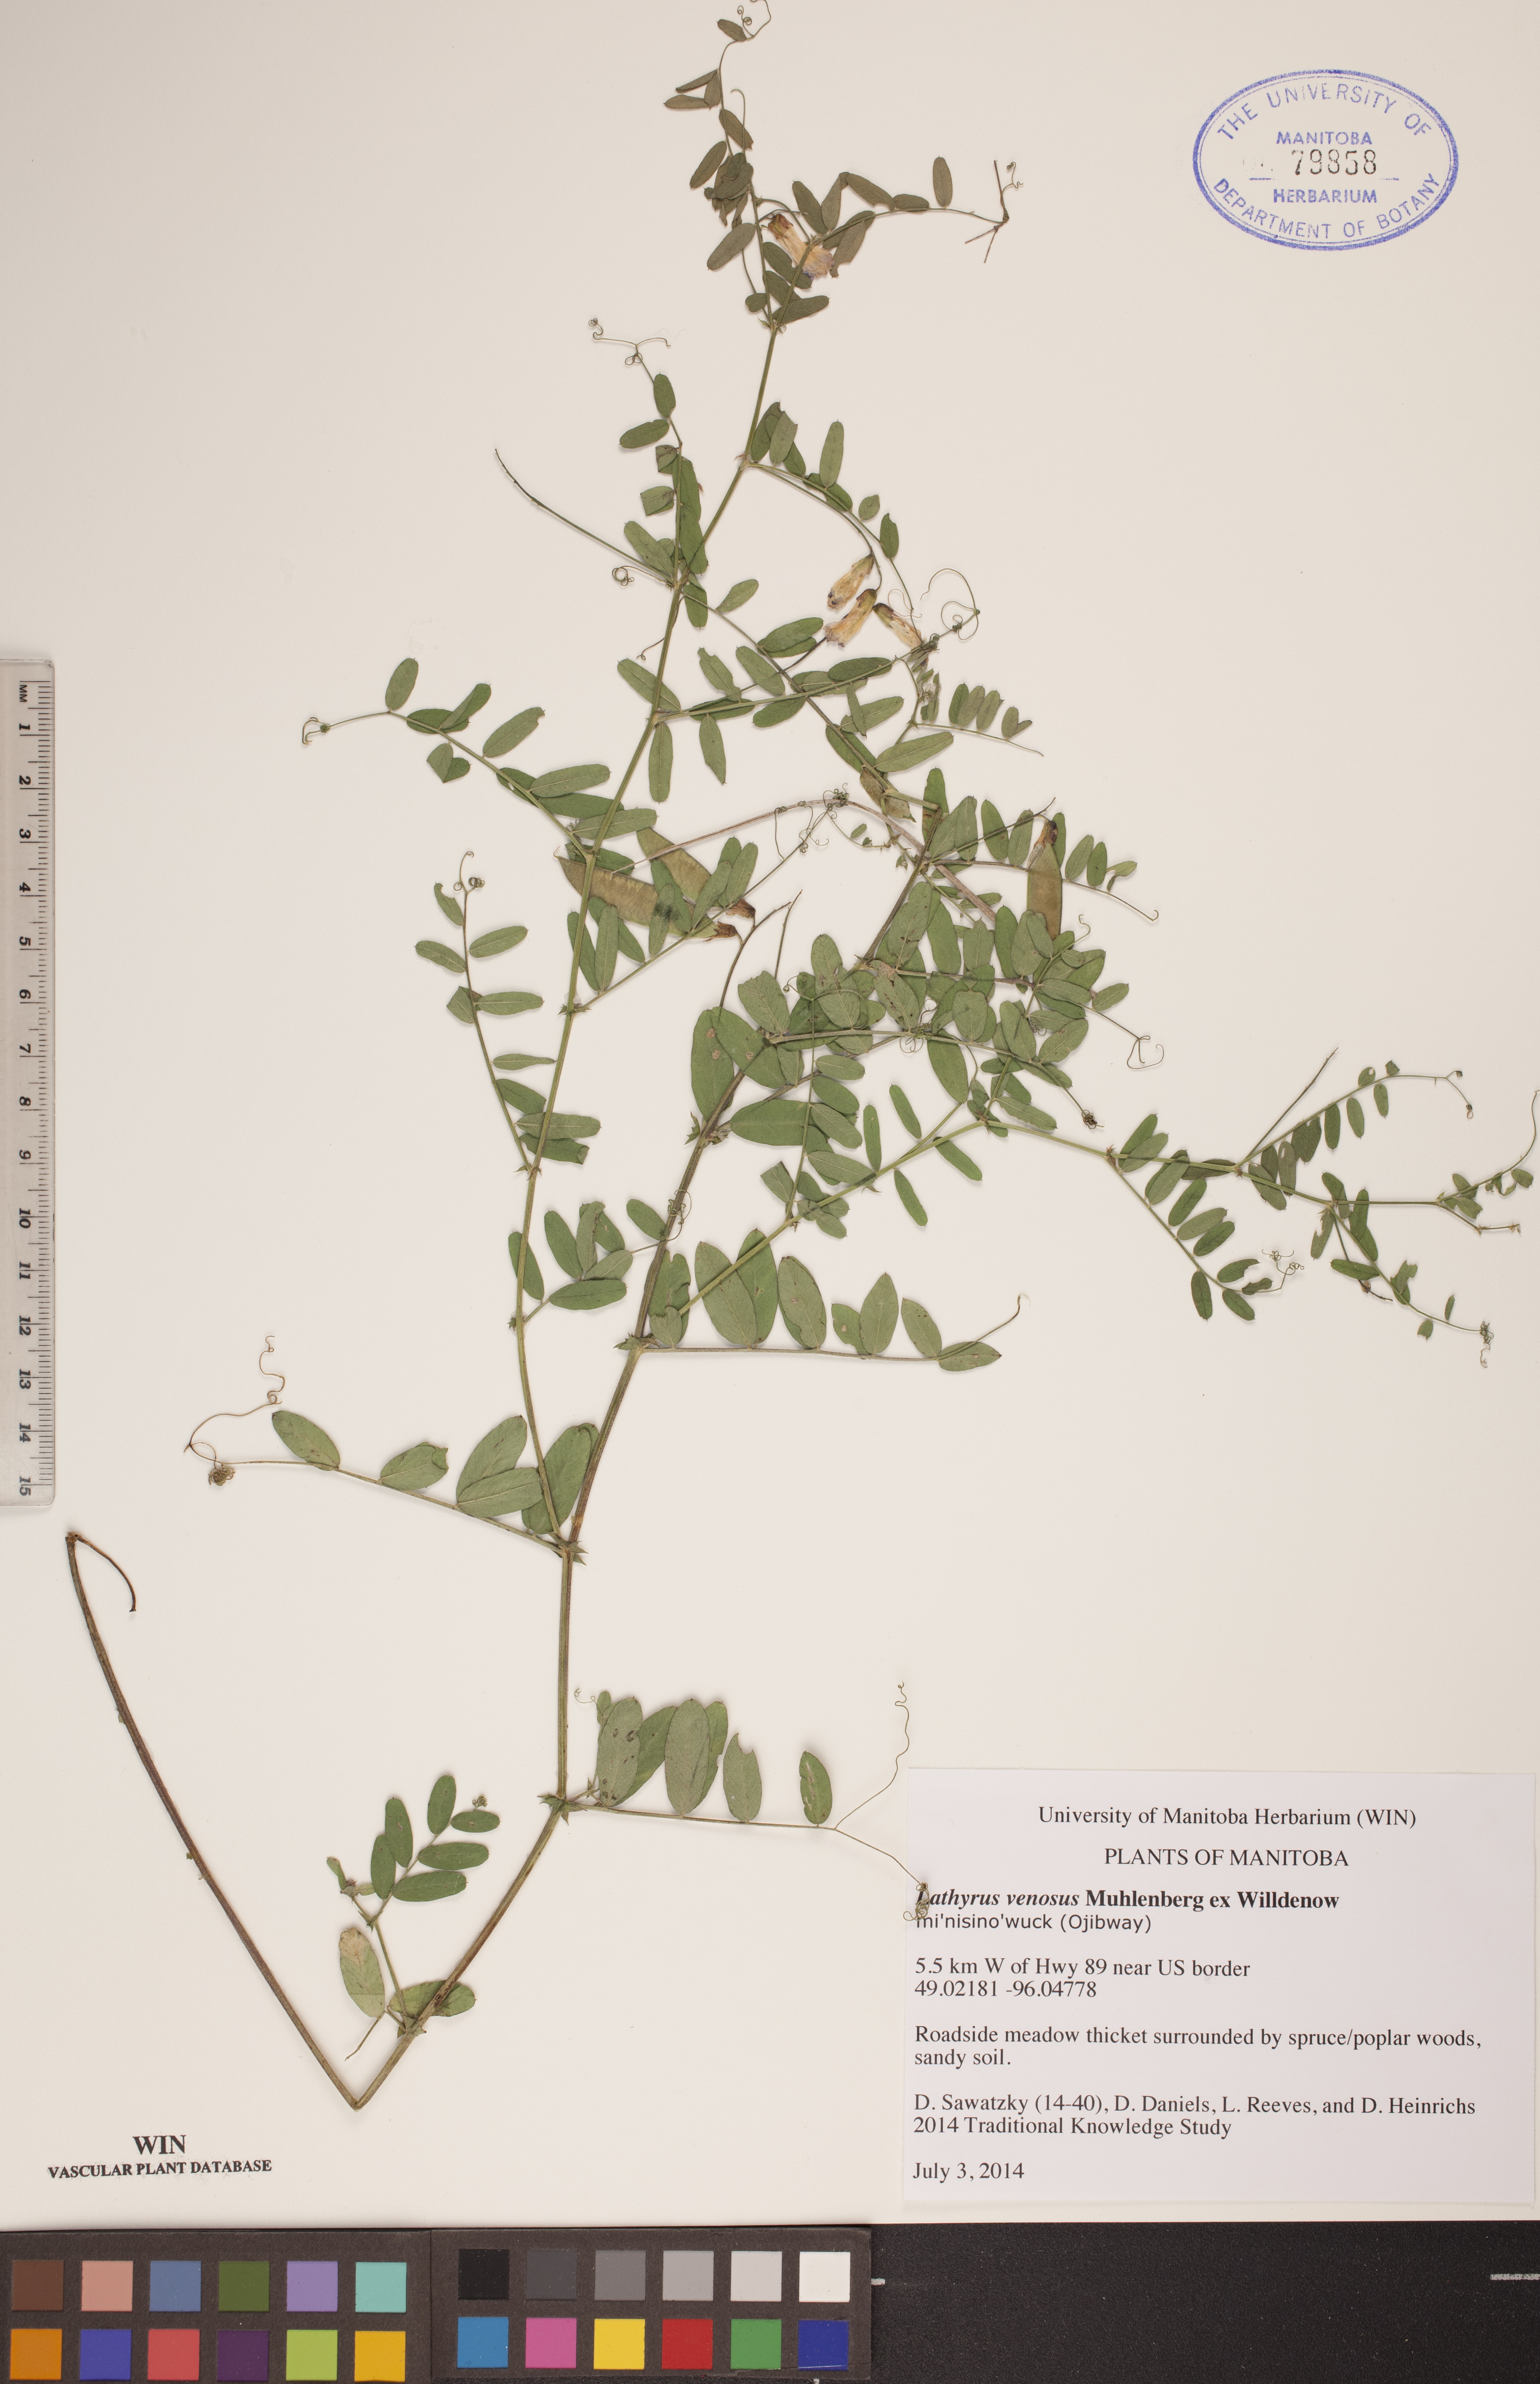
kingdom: Plantae
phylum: Tracheophyta
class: Magnoliopsida
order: Fabales
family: Fabaceae
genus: Lathyrus
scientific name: Lathyrus venosus
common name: Forest-pea
